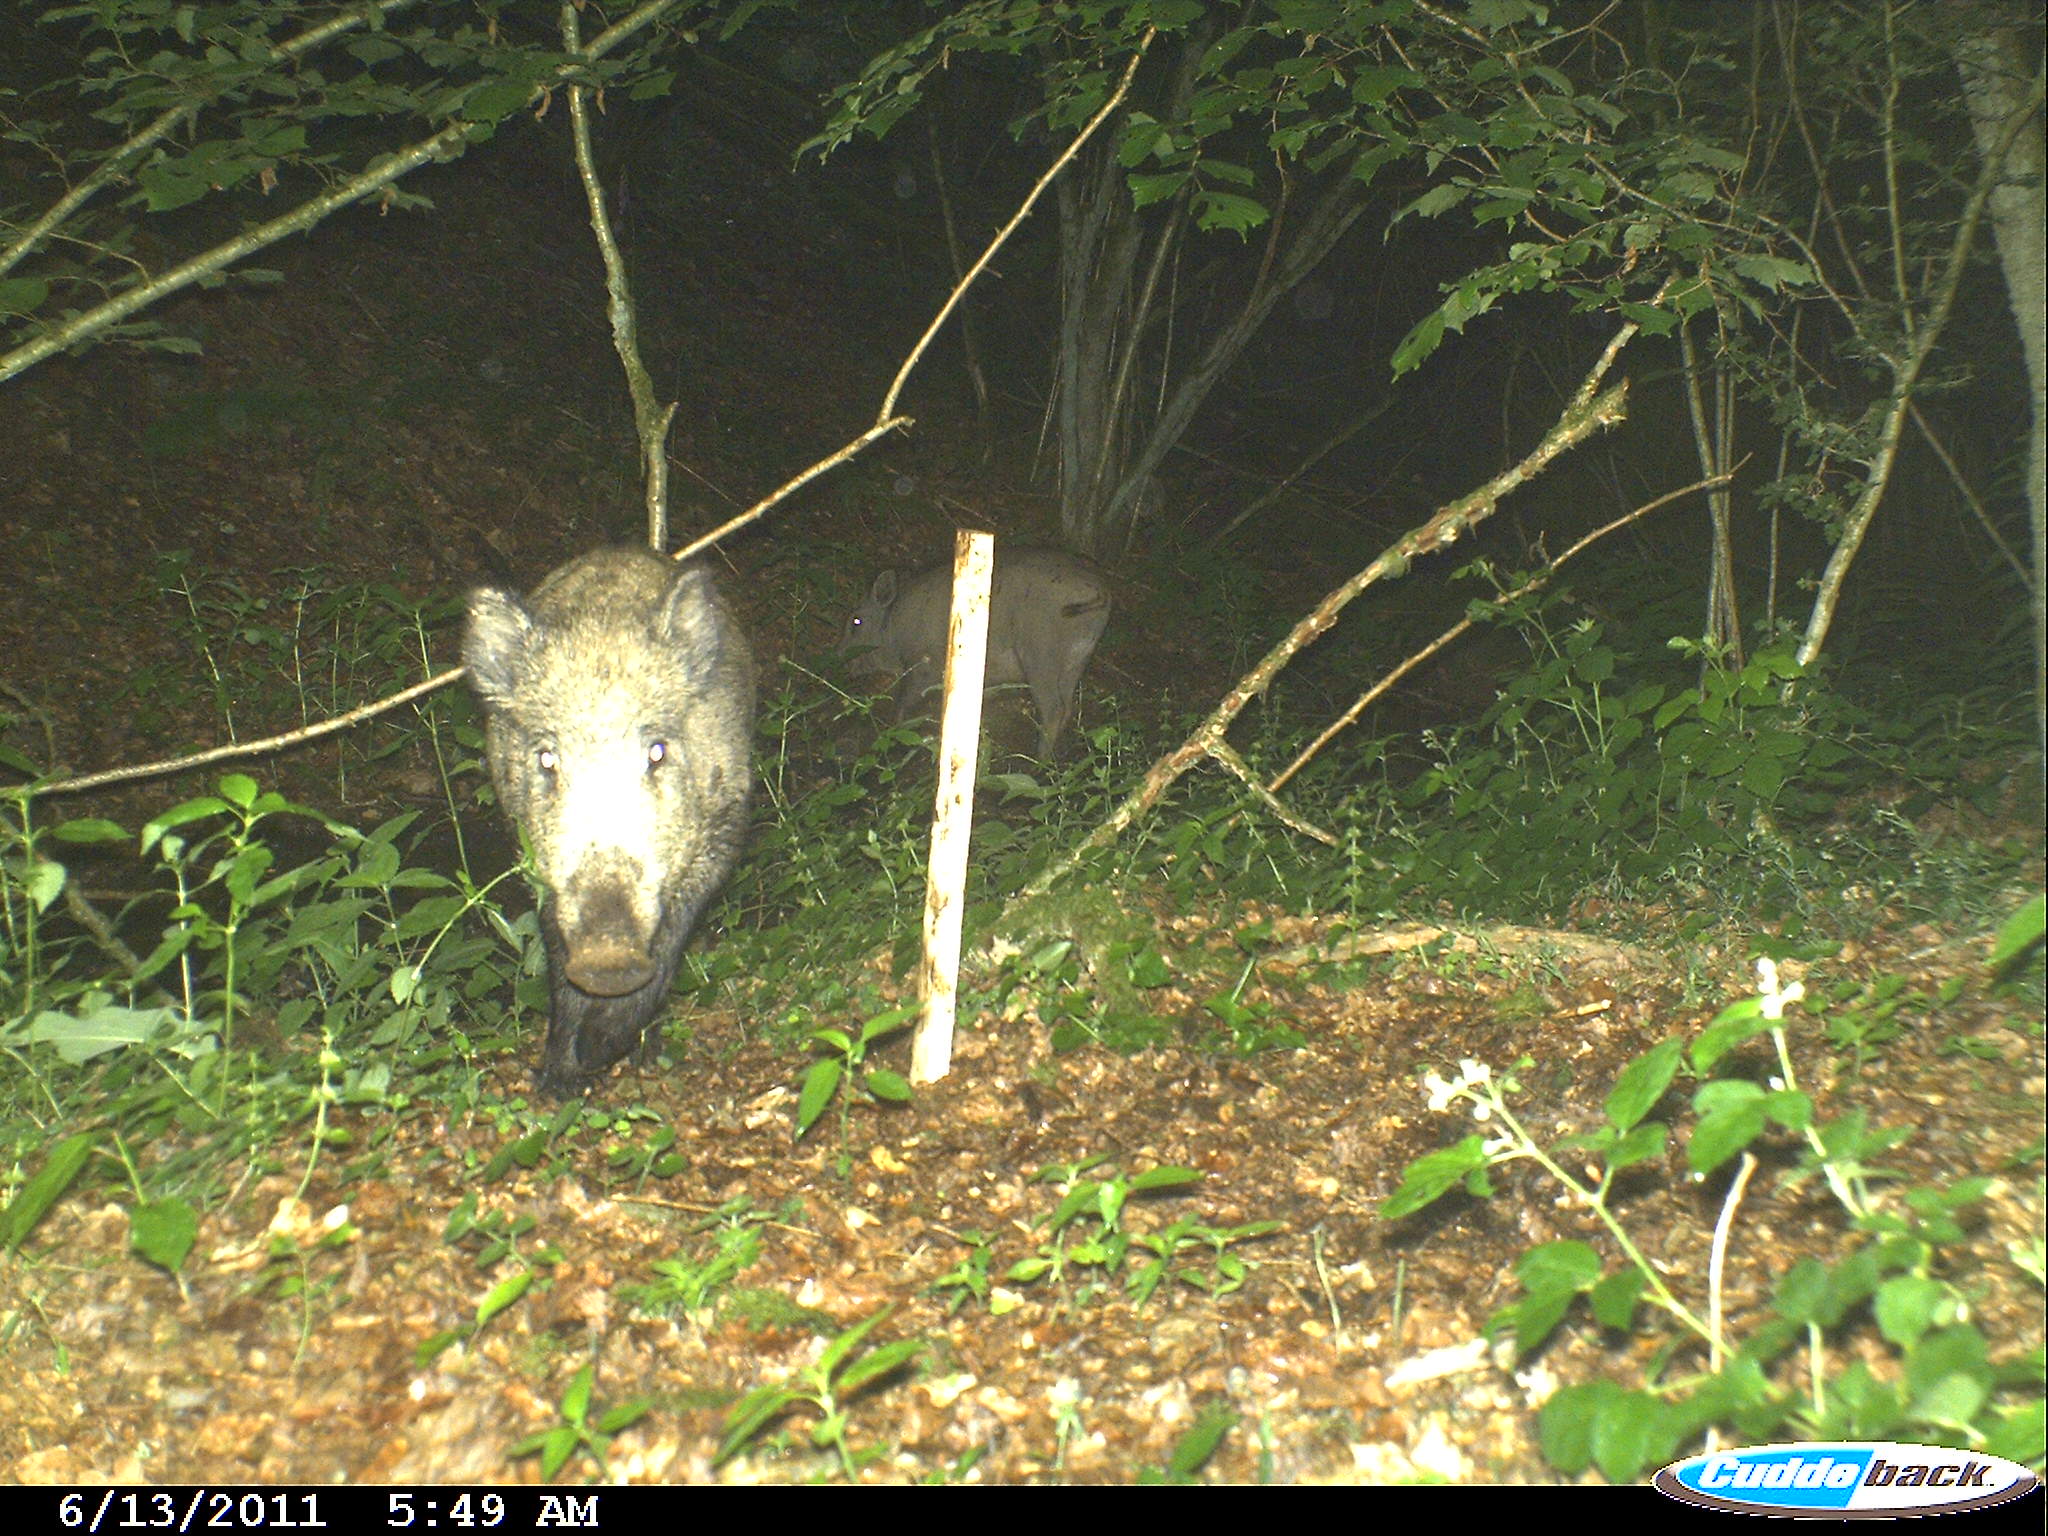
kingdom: Animalia
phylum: Chordata
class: Mammalia
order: Artiodactyla
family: Suidae
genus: Sus
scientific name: Sus scrofa
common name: Wild boar
